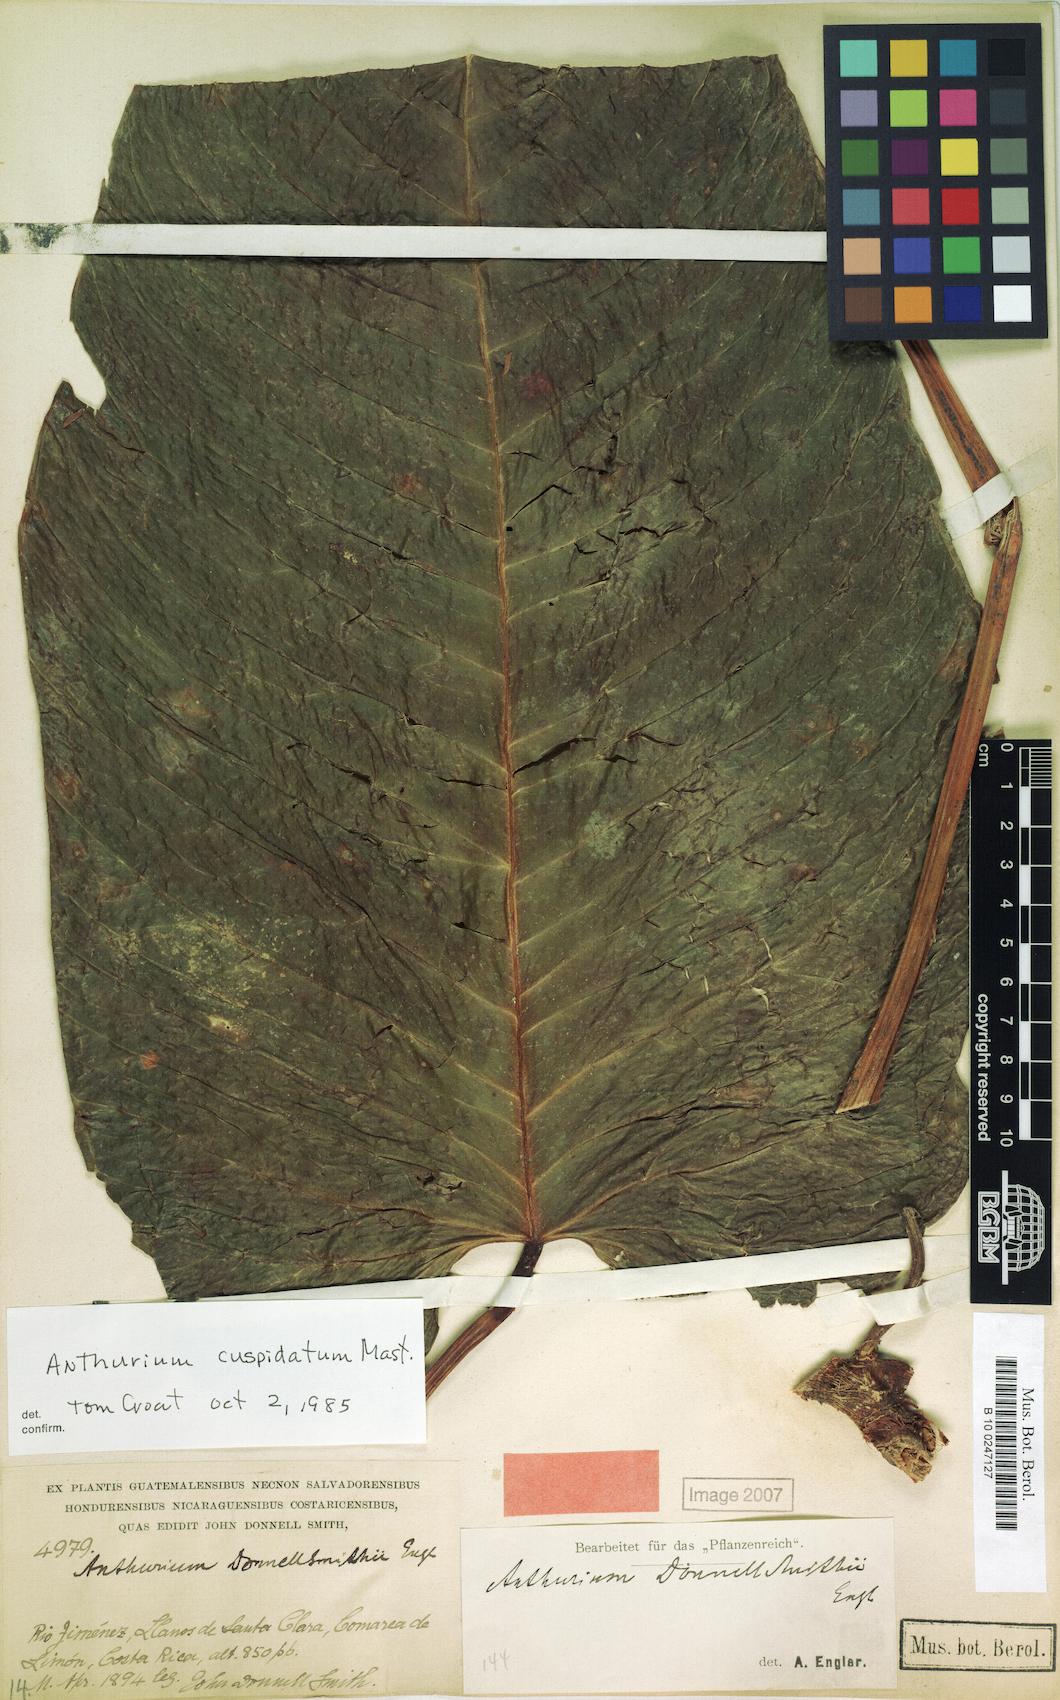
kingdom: Plantae
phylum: Tracheophyta
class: Liliopsida
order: Alismatales
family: Araceae
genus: Anthurium
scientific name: Anthurium talamancae
